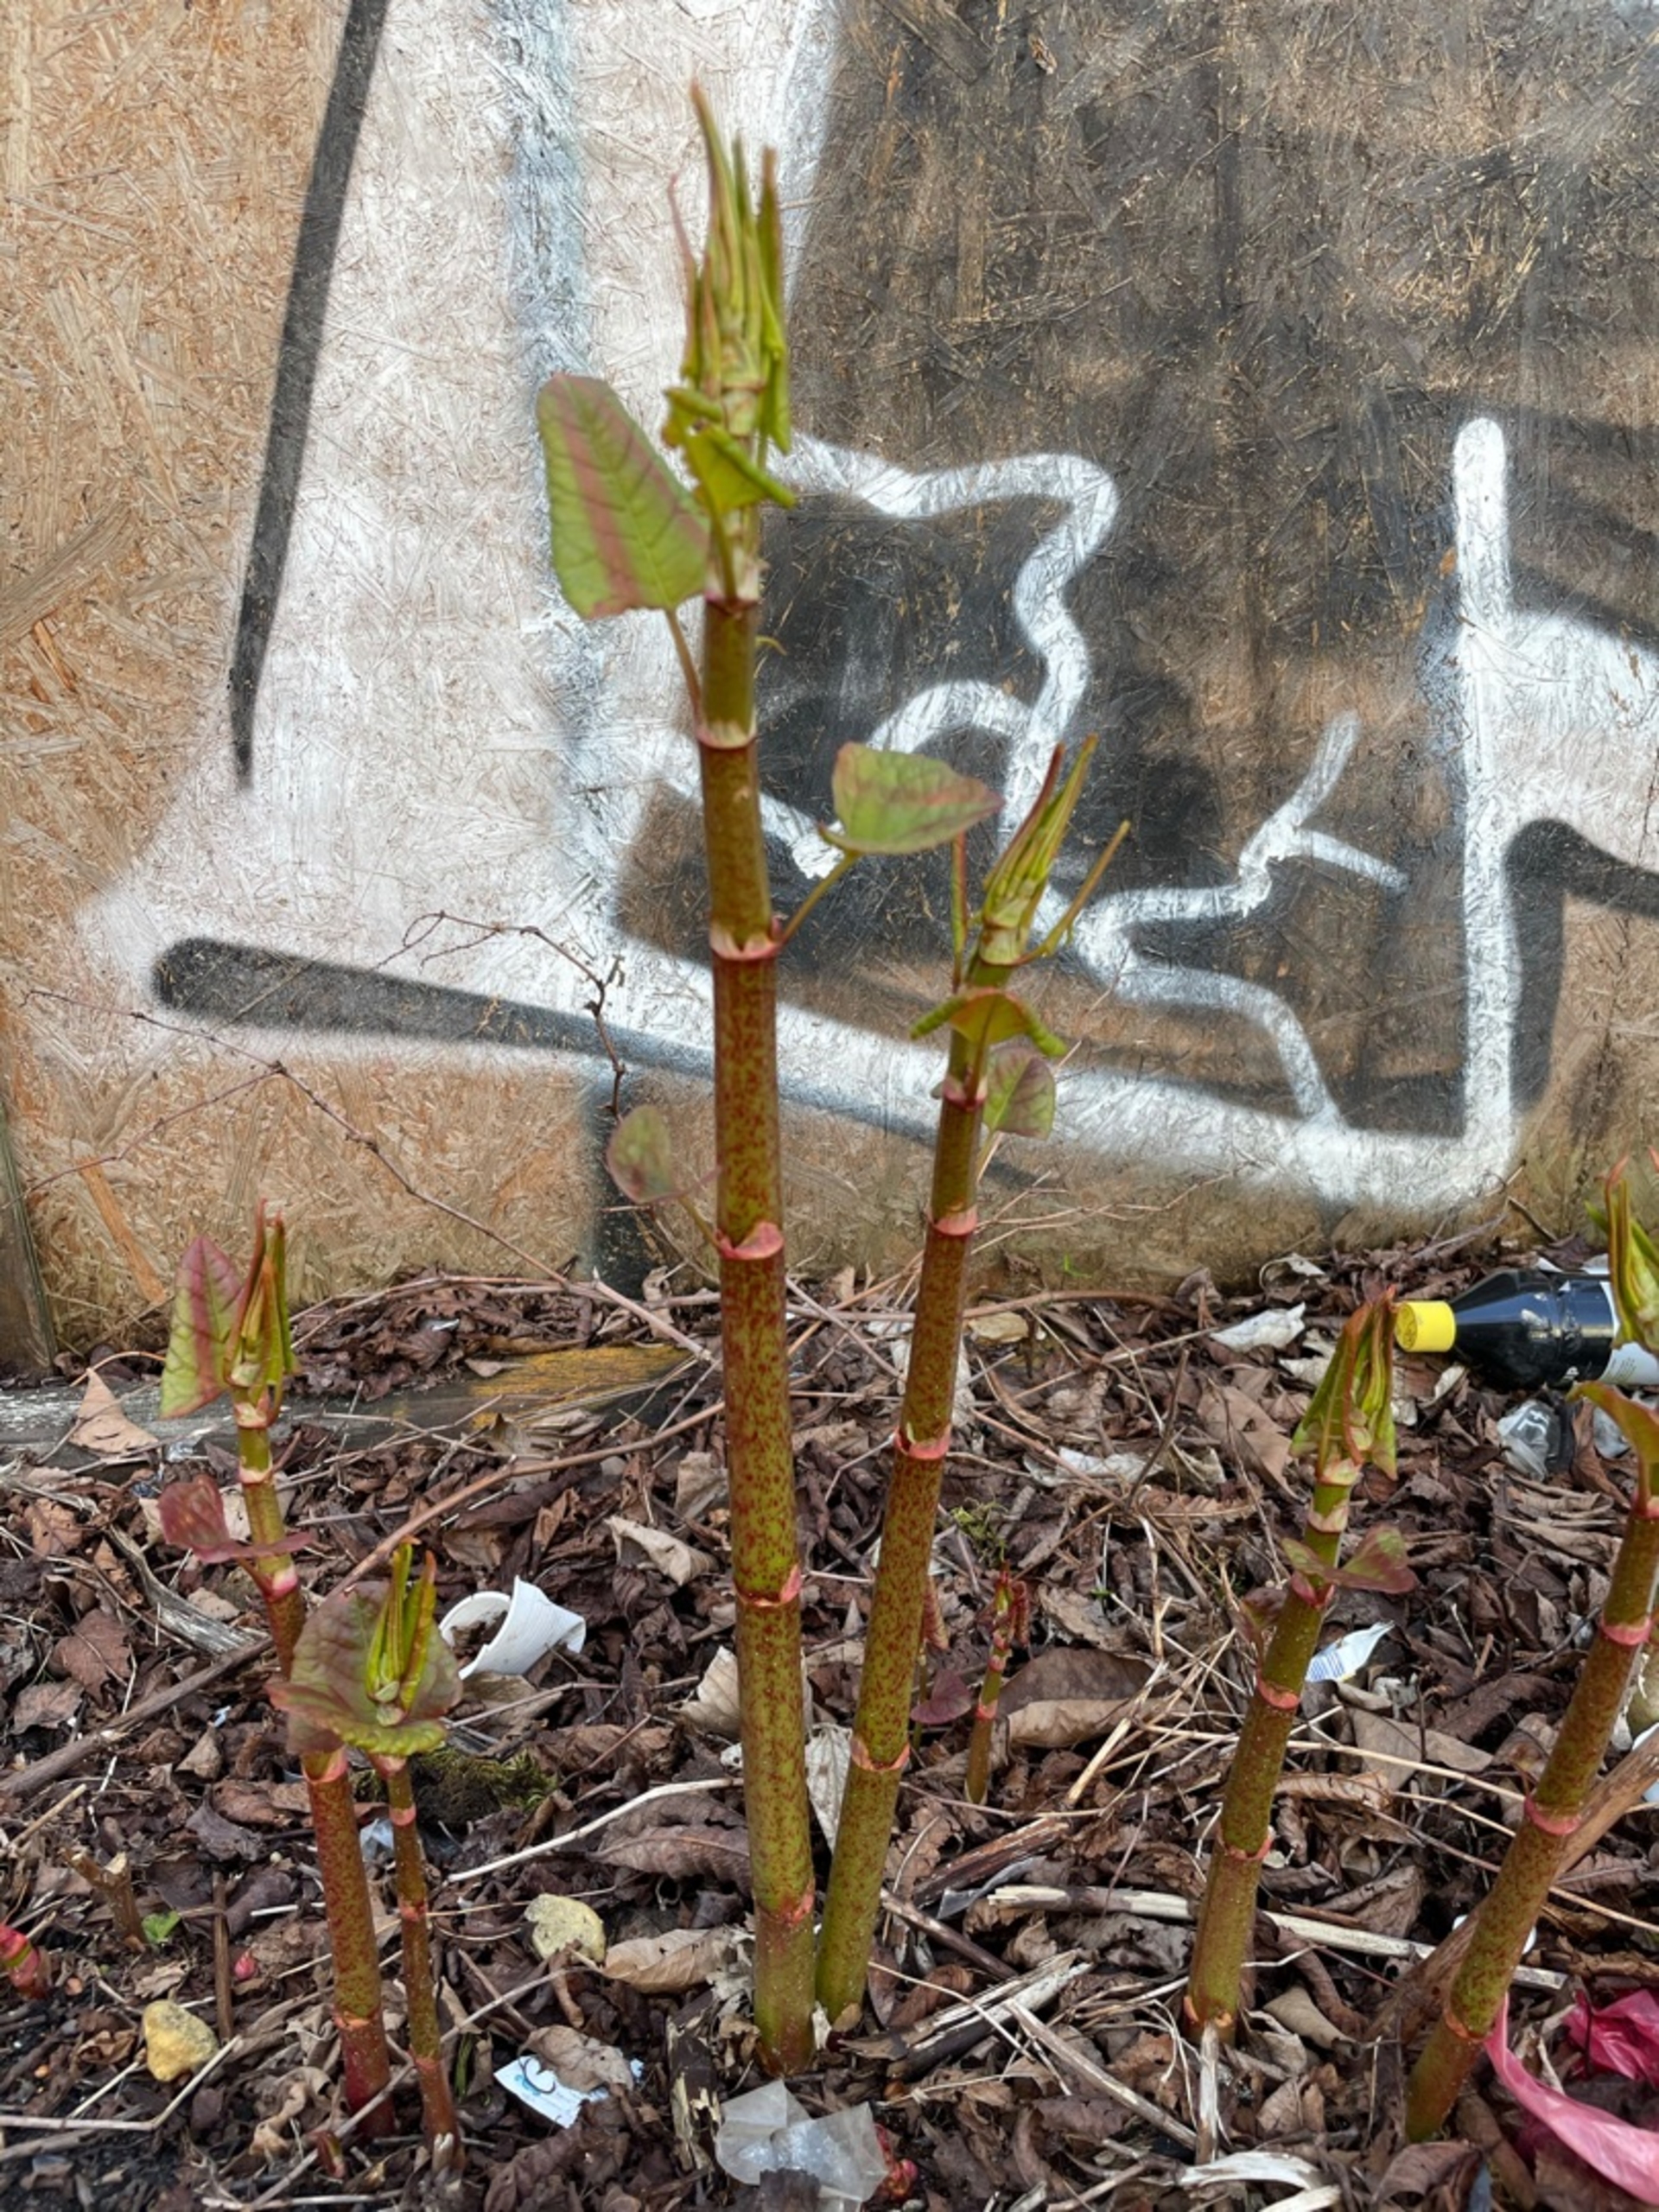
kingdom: Plantae
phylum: Tracheophyta
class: Magnoliopsida
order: Caryophyllales
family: Polygonaceae
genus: Reynoutria
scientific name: Reynoutria bohemica
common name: Hybrid-pileurt
